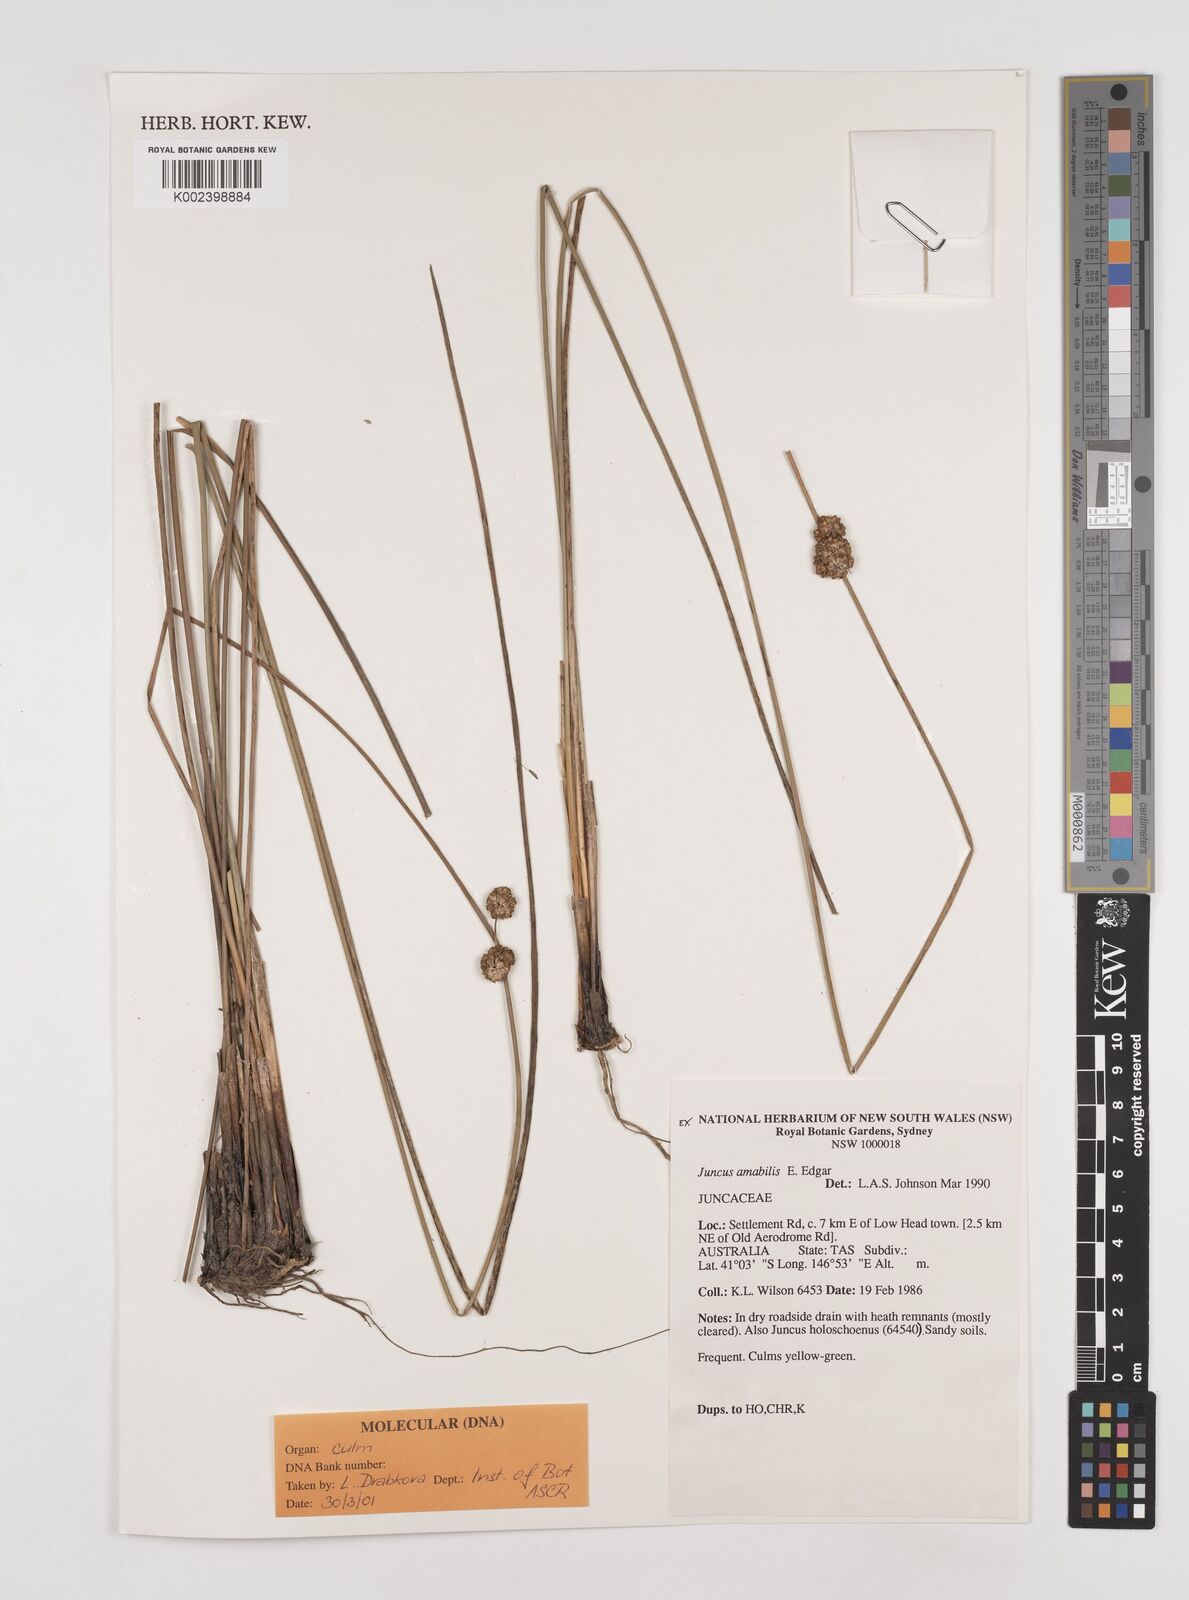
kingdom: Plantae
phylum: Tracheophyta
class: Liliopsida
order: Poales
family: Juncaceae
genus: Juncus
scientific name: Juncus amabilis
